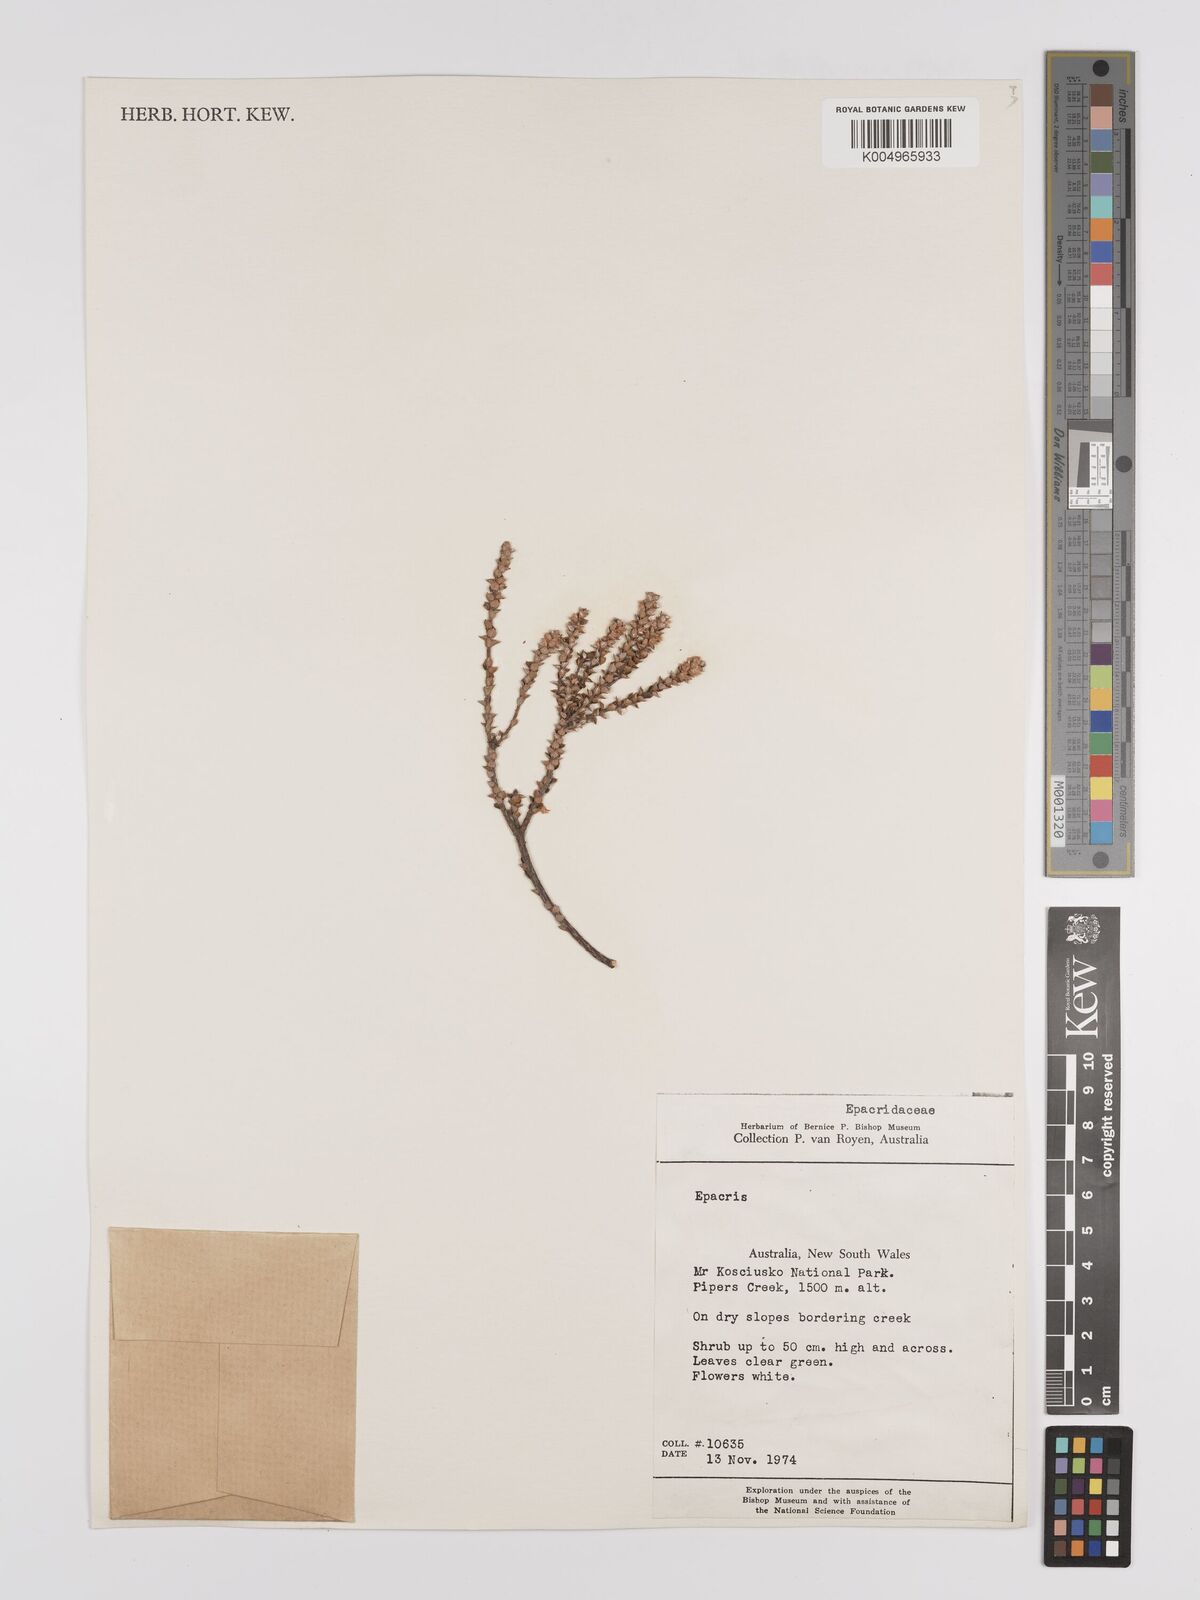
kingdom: Plantae
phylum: Tracheophyta
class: Magnoliopsida
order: Ericales
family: Ericaceae
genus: Epacris
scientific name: Epacris
